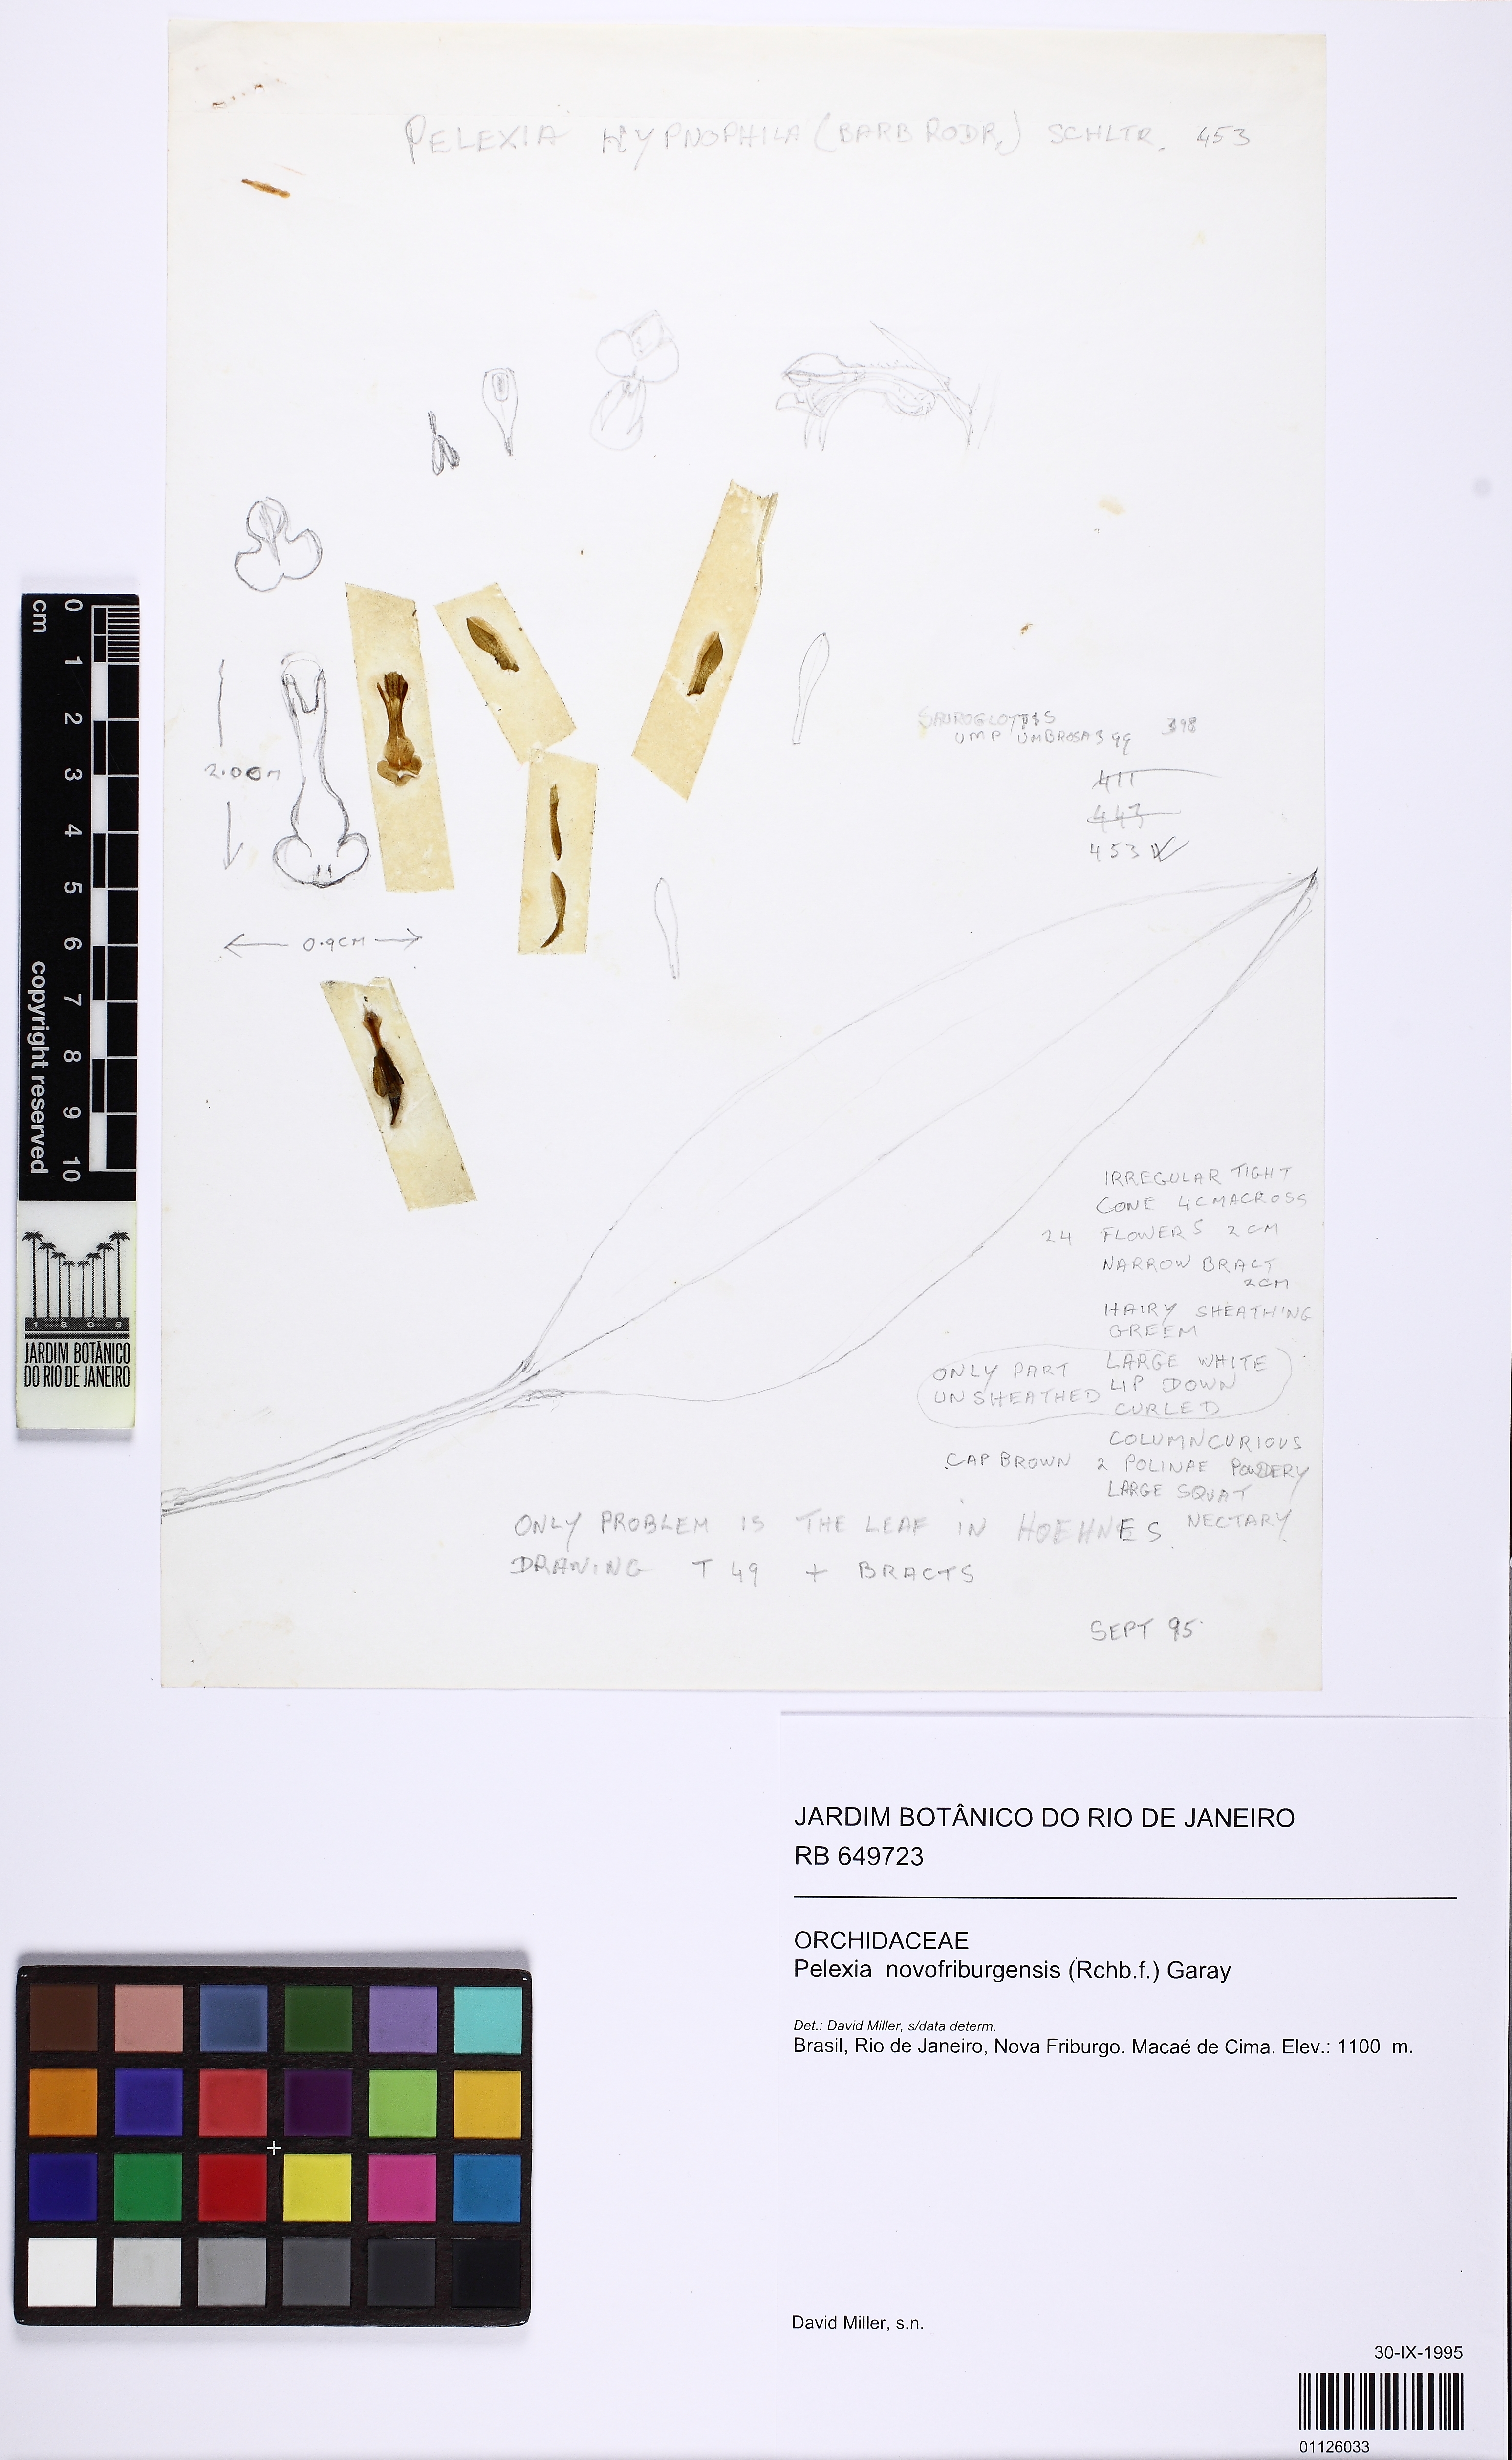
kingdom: Plantae
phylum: Tracheophyta
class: Liliopsida
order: Asparagales
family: Orchidaceae
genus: Pelexia
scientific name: Pelexia novofriburgensis
